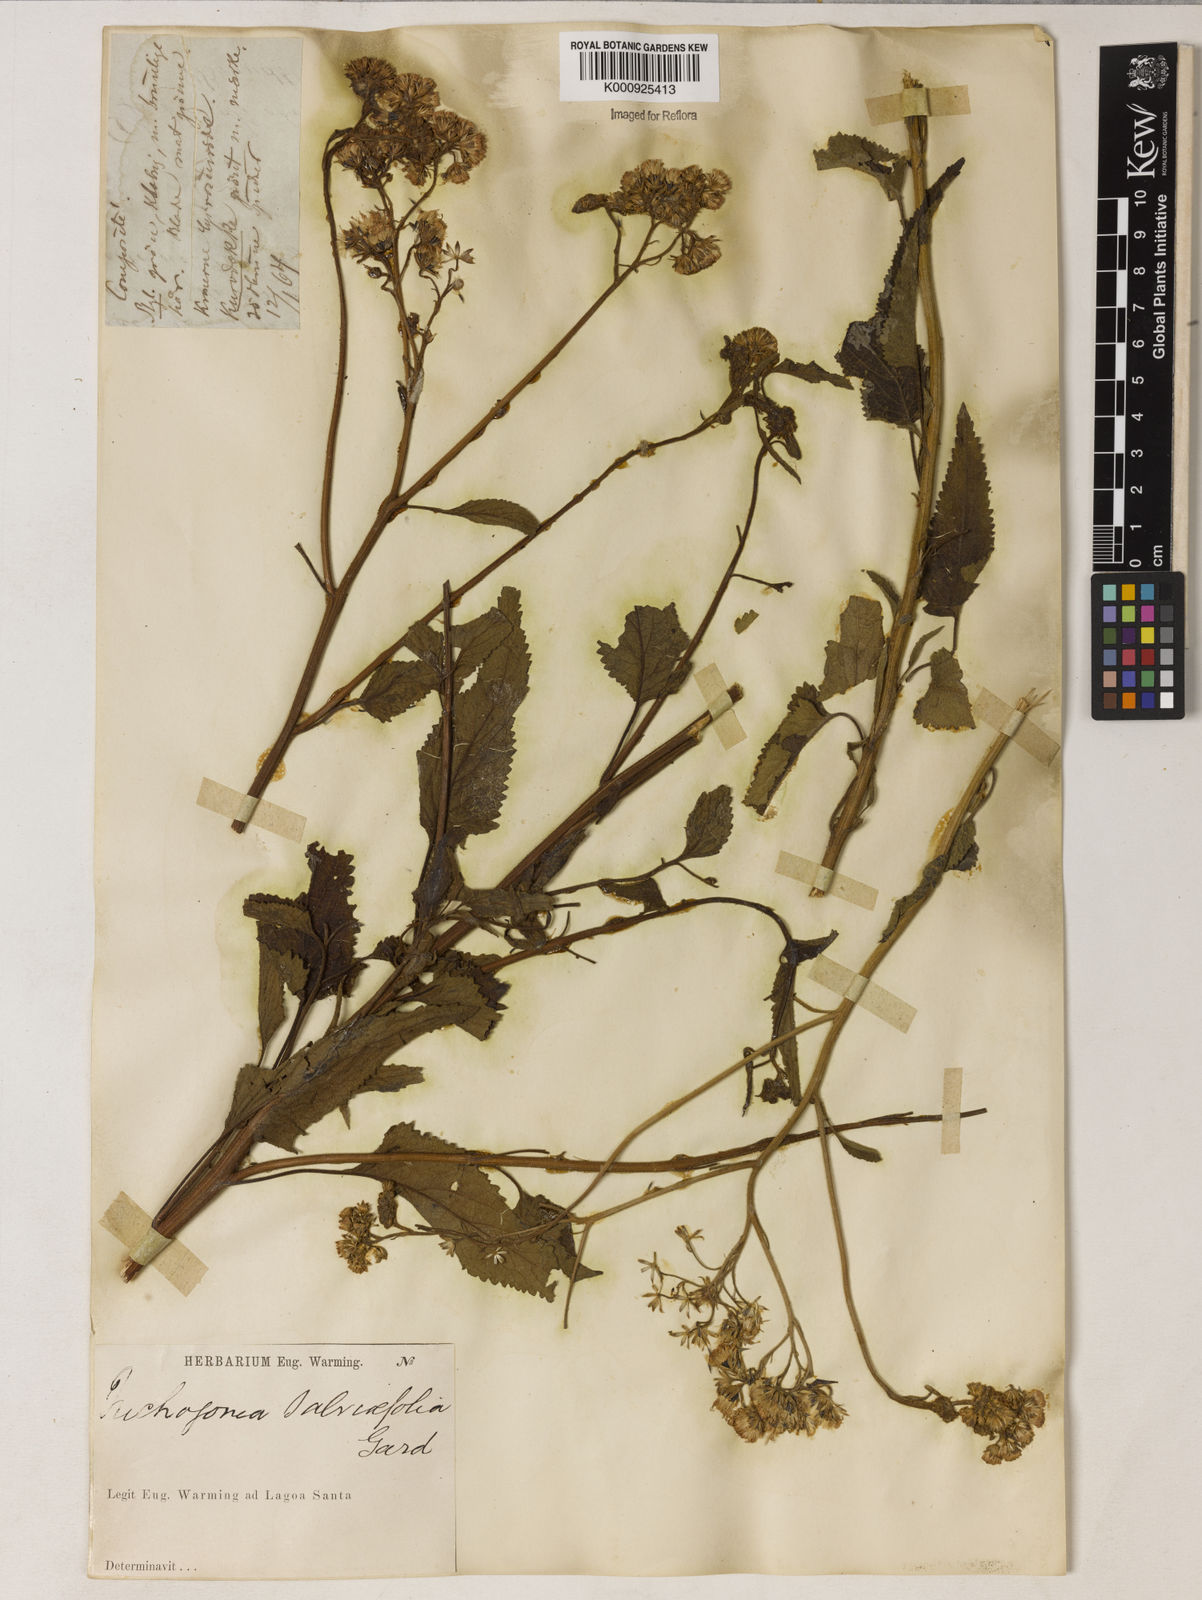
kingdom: Plantae
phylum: Tracheophyta
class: Magnoliopsida
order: Asterales
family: Asteraceae
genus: Trichogonia
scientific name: Trichogonia
